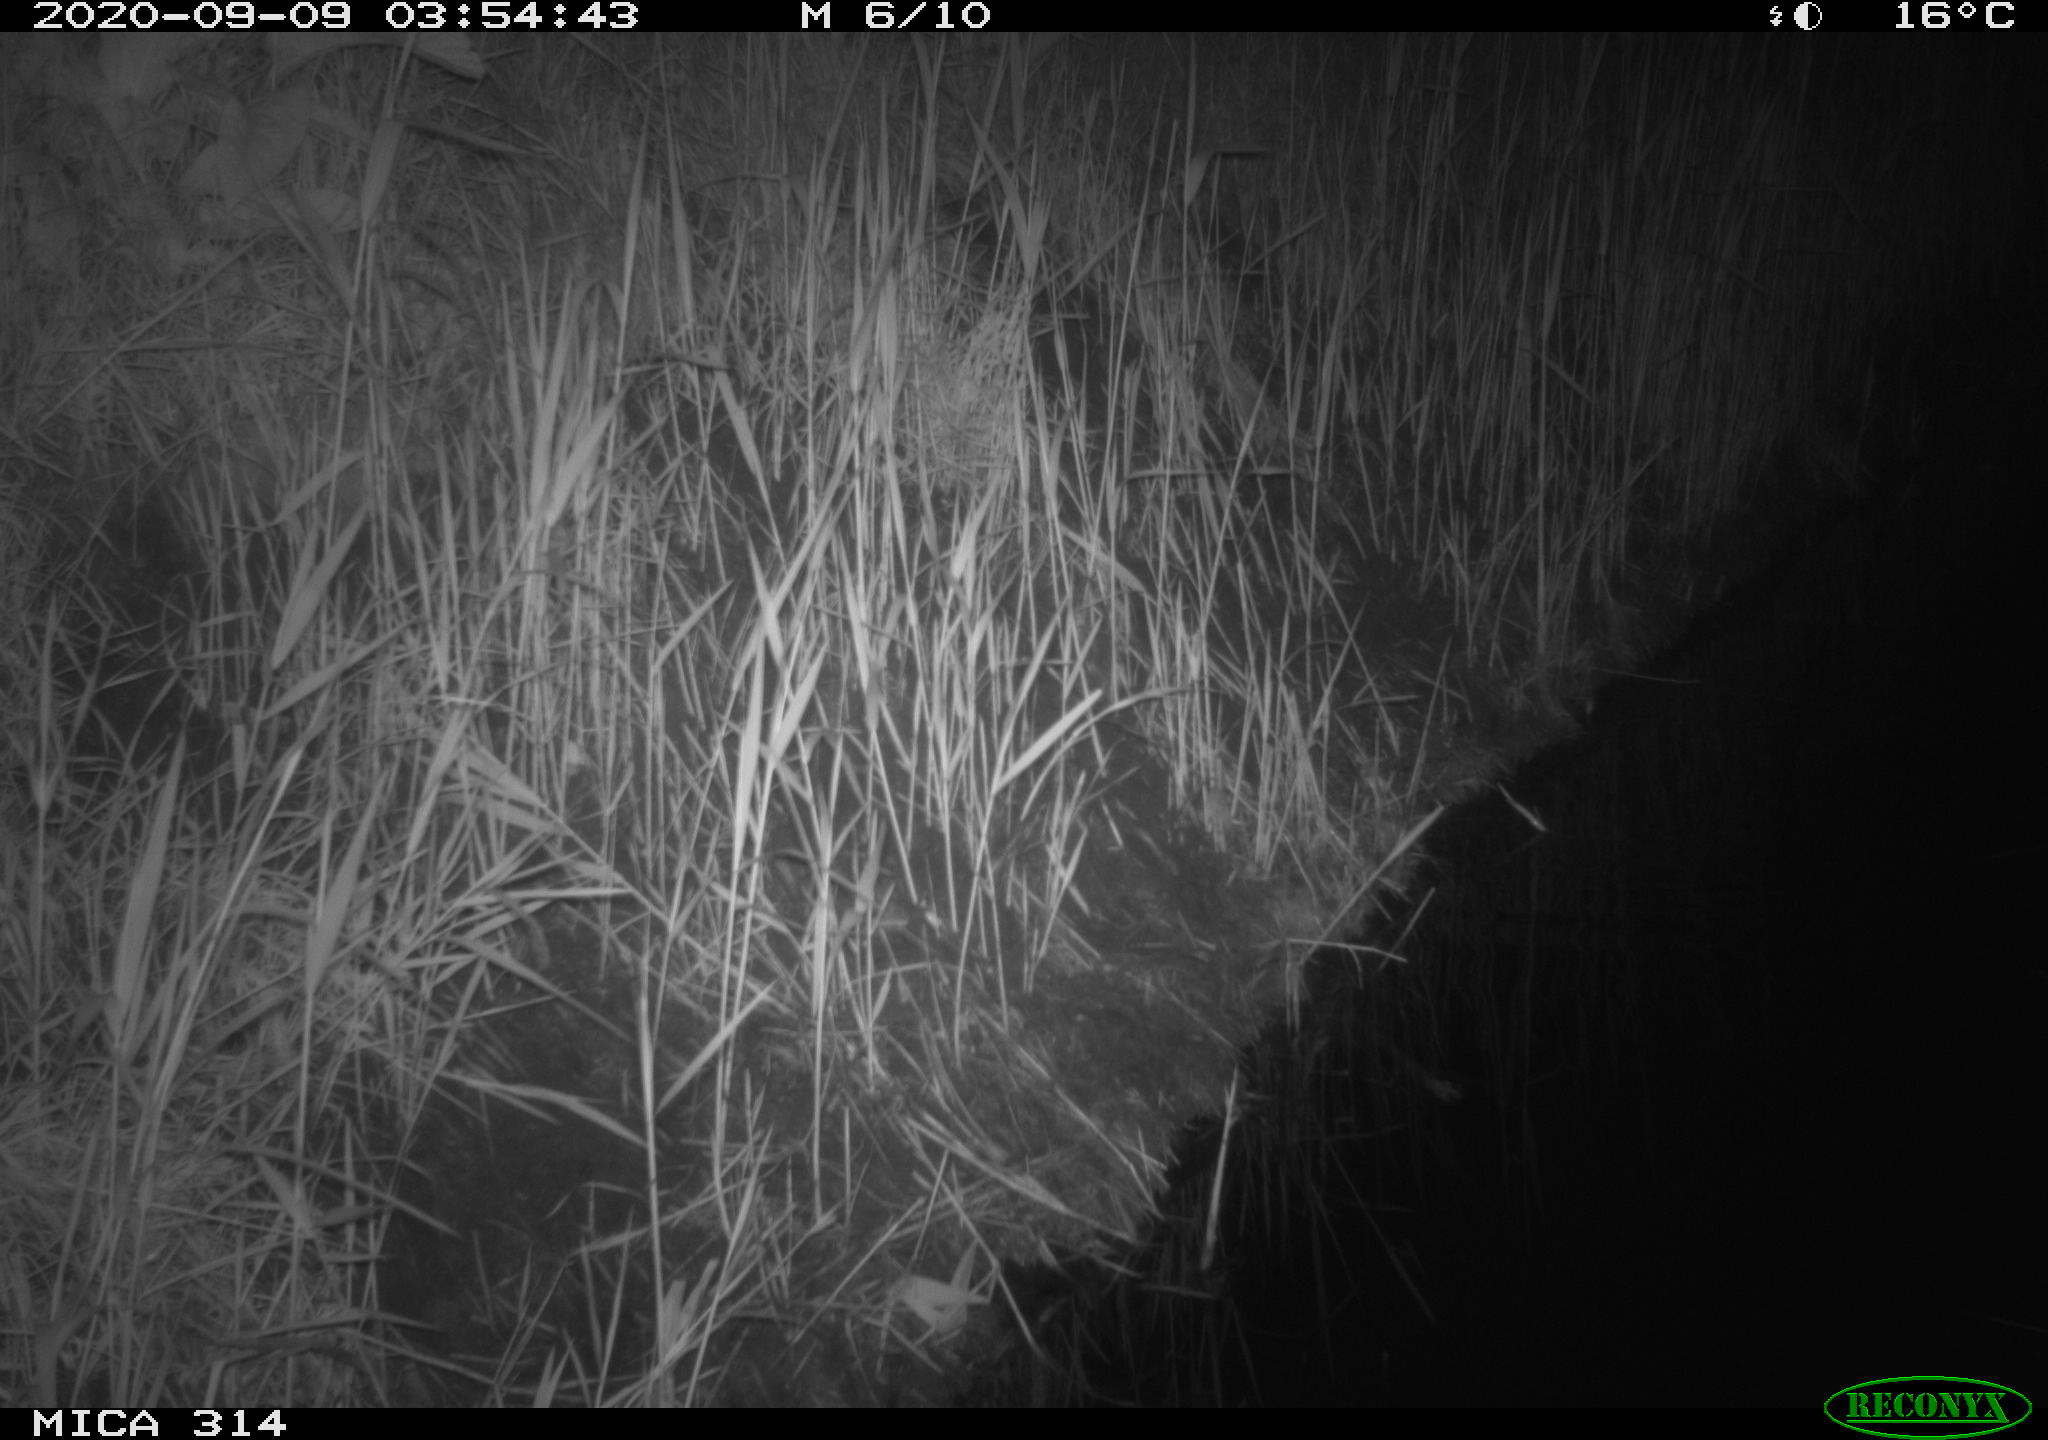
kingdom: Animalia
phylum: Chordata
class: Mammalia
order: Rodentia
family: Muridae
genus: Rattus
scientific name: Rattus norvegicus
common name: Brown rat
